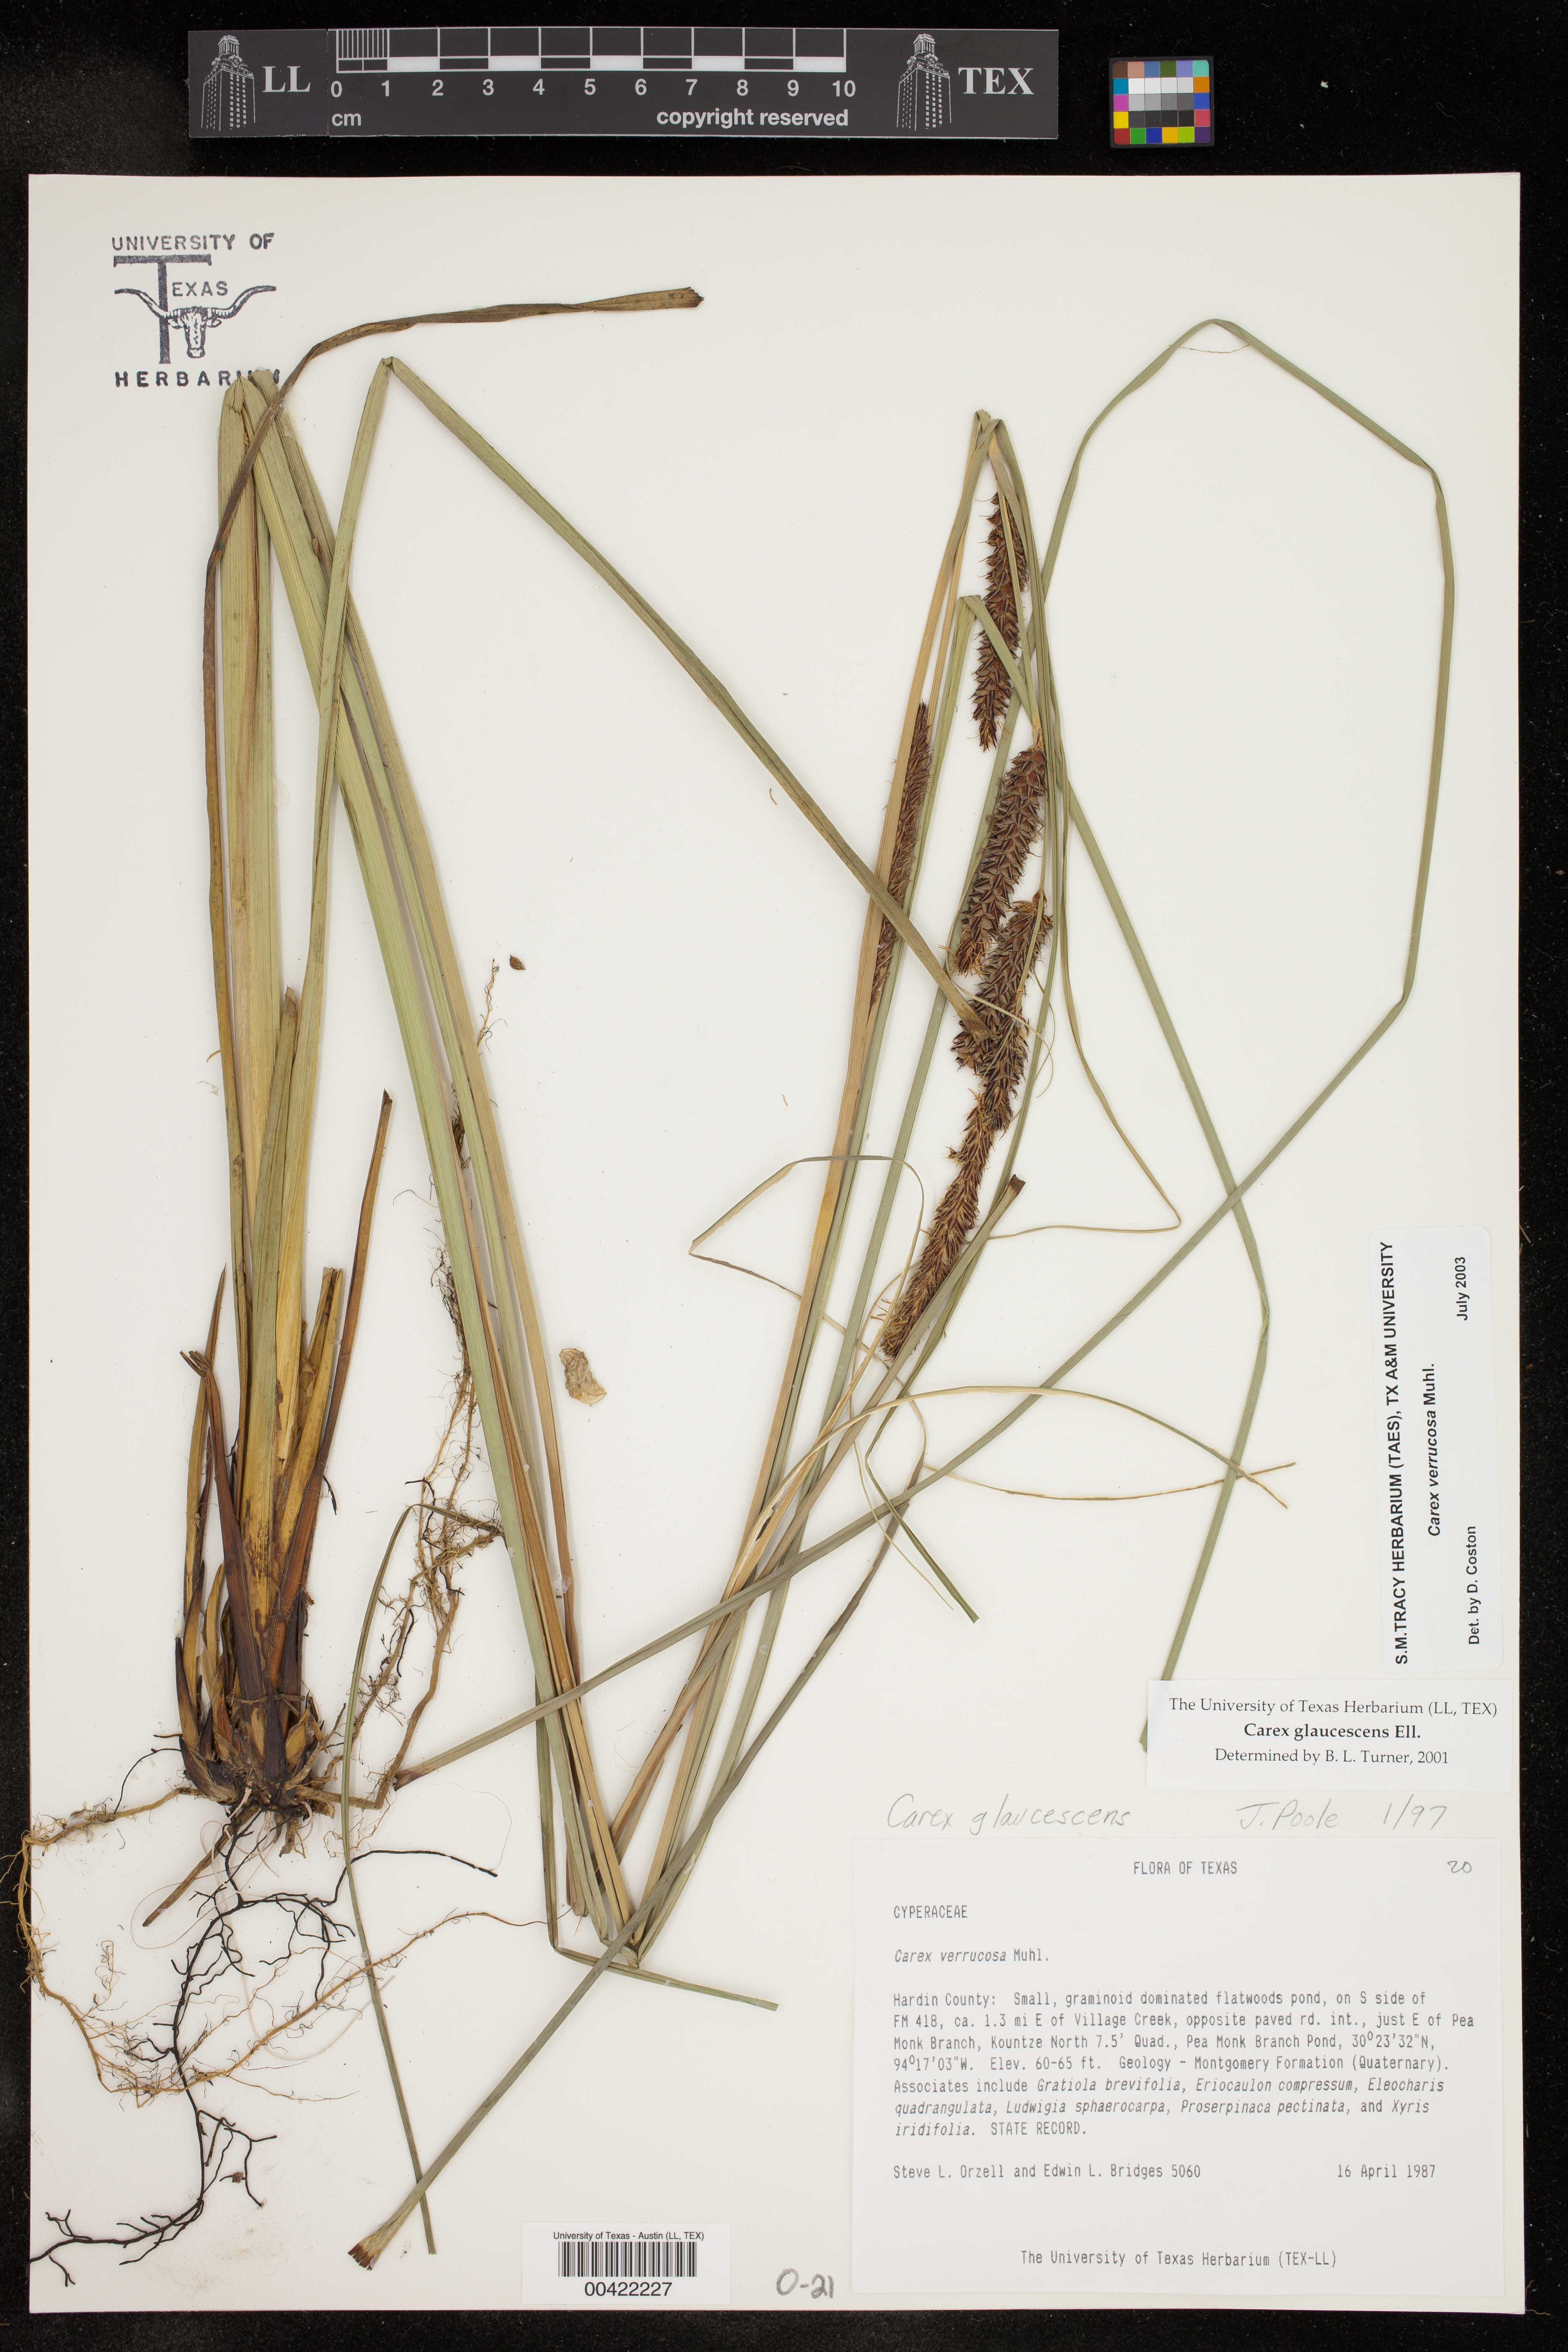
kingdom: Plantae
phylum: Tracheophyta
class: Liliopsida
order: Poales
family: Cyperaceae
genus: Carex
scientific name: Carex verrucosa
